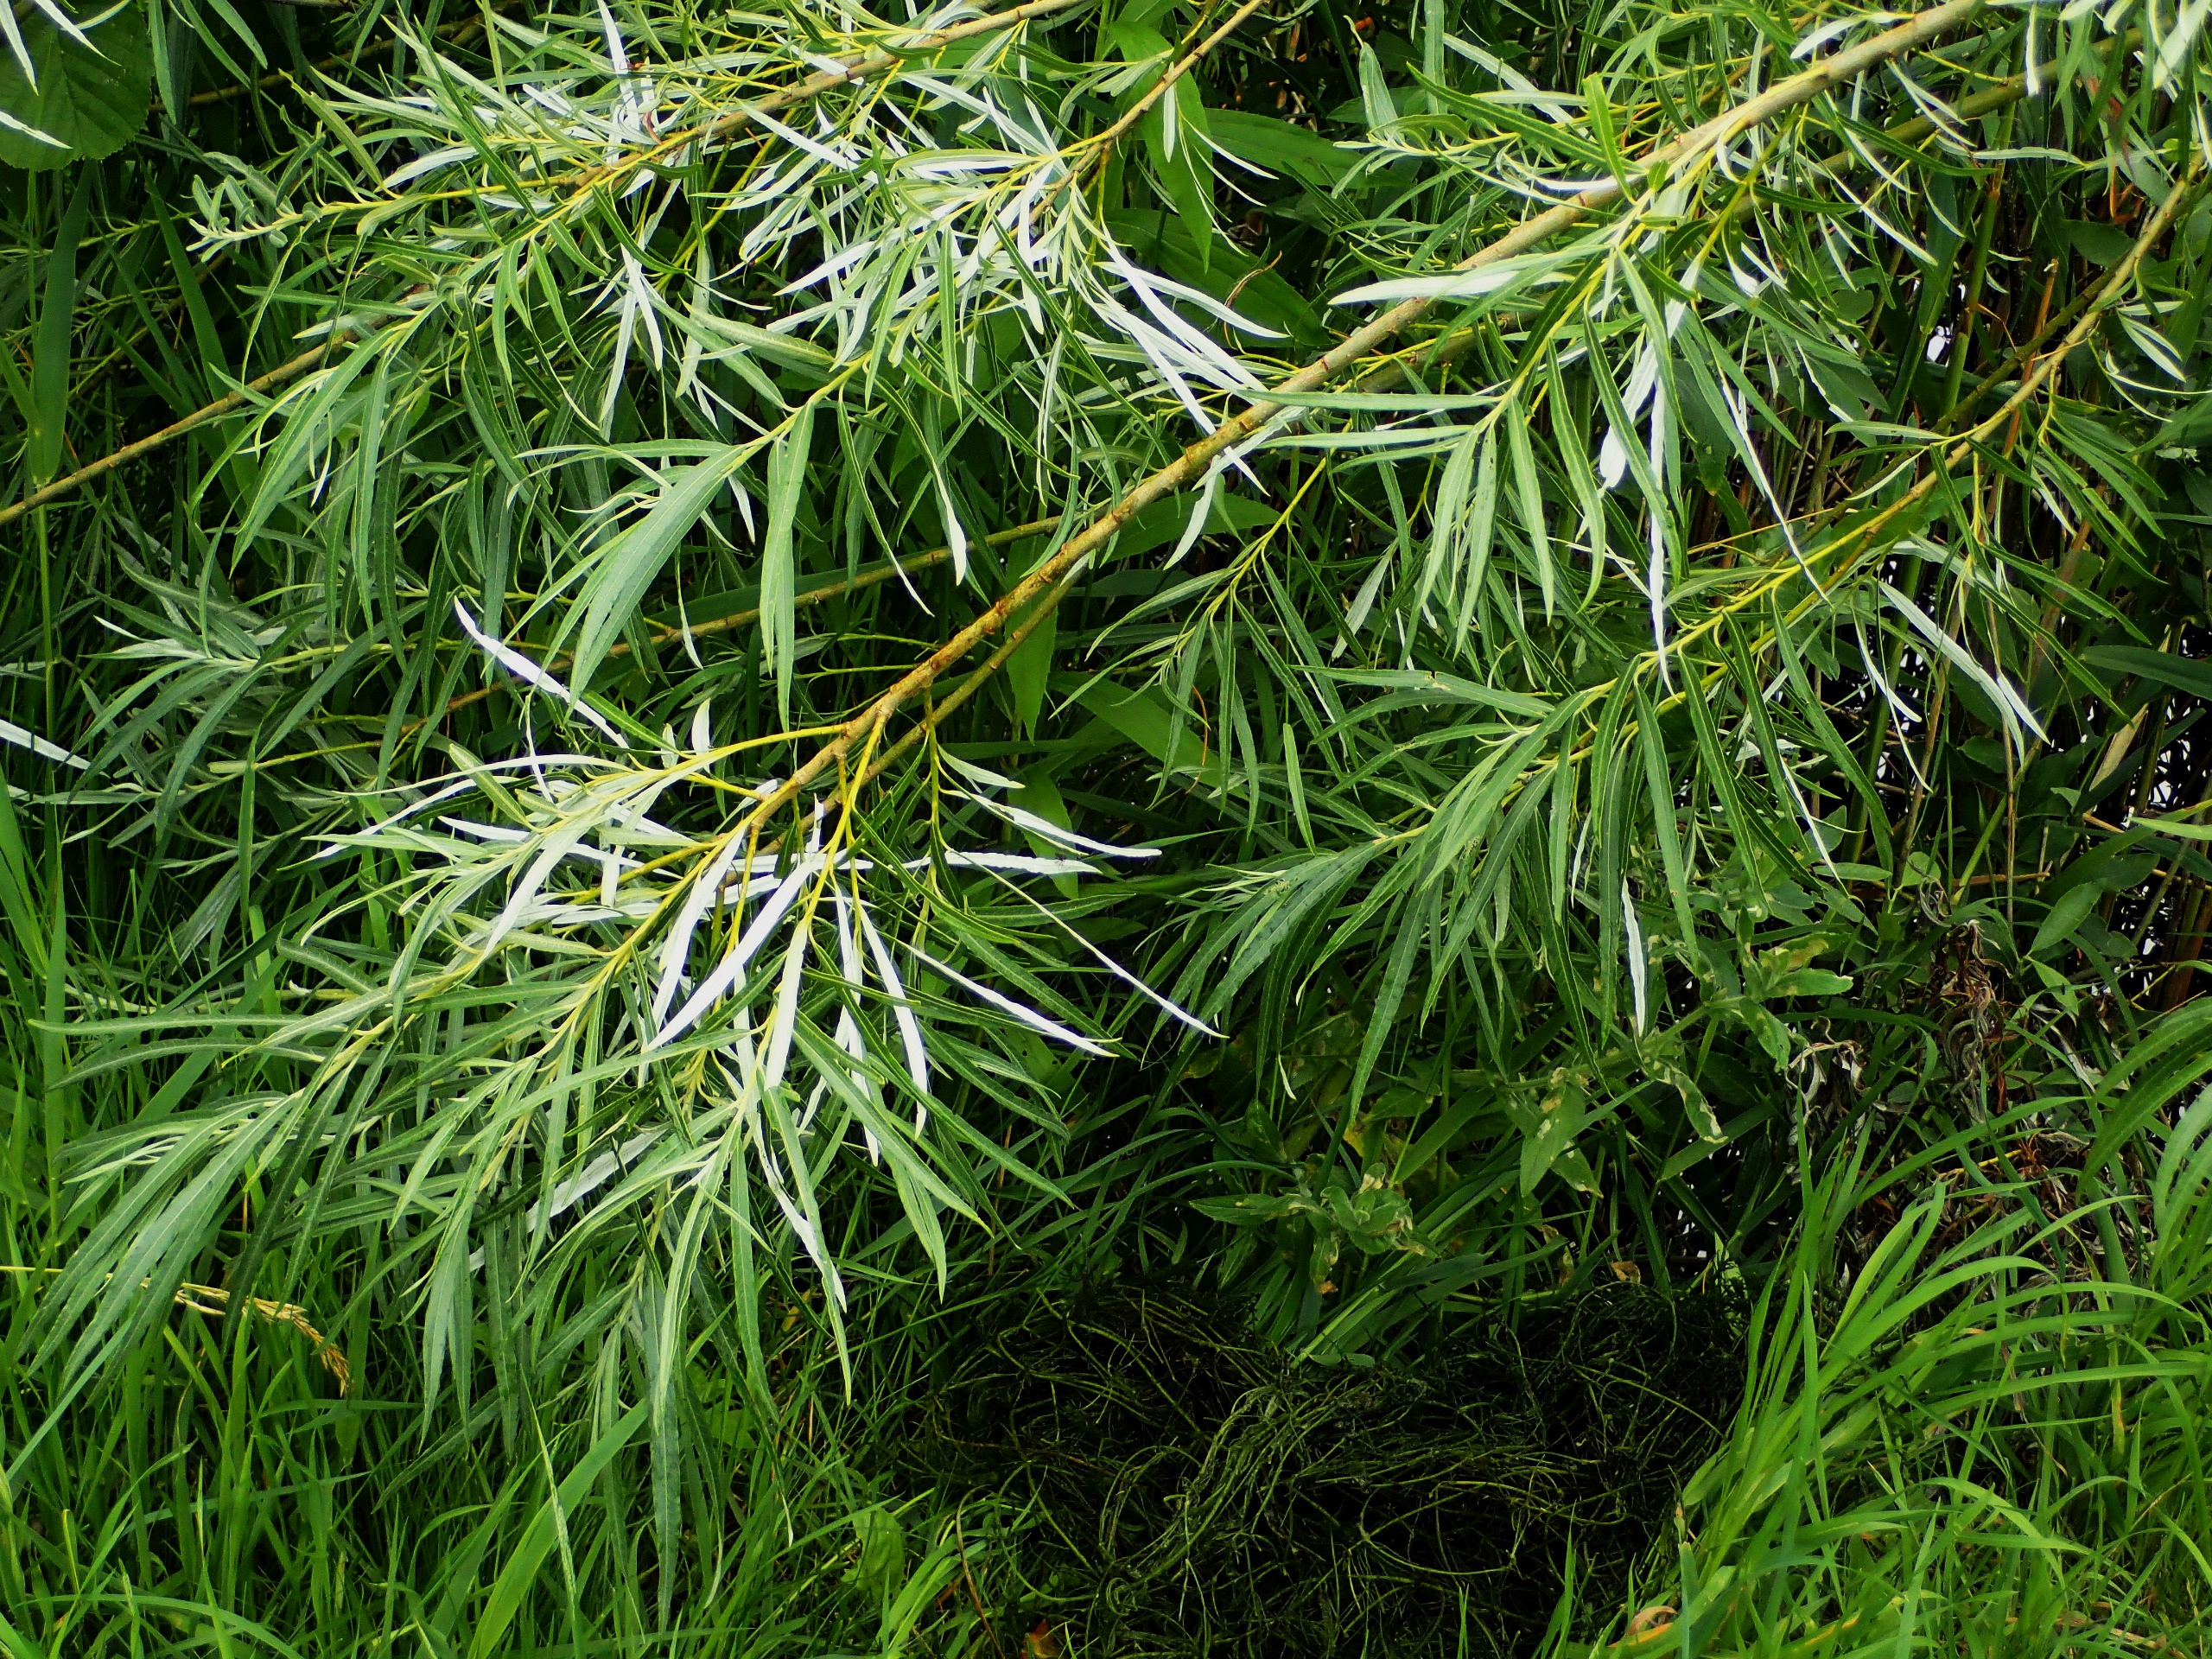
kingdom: Plantae
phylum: Tracheophyta
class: Magnoliopsida
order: Malpighiales
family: Salicaceae
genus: Salix
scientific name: Salix viminalis
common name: Bånd-pil
